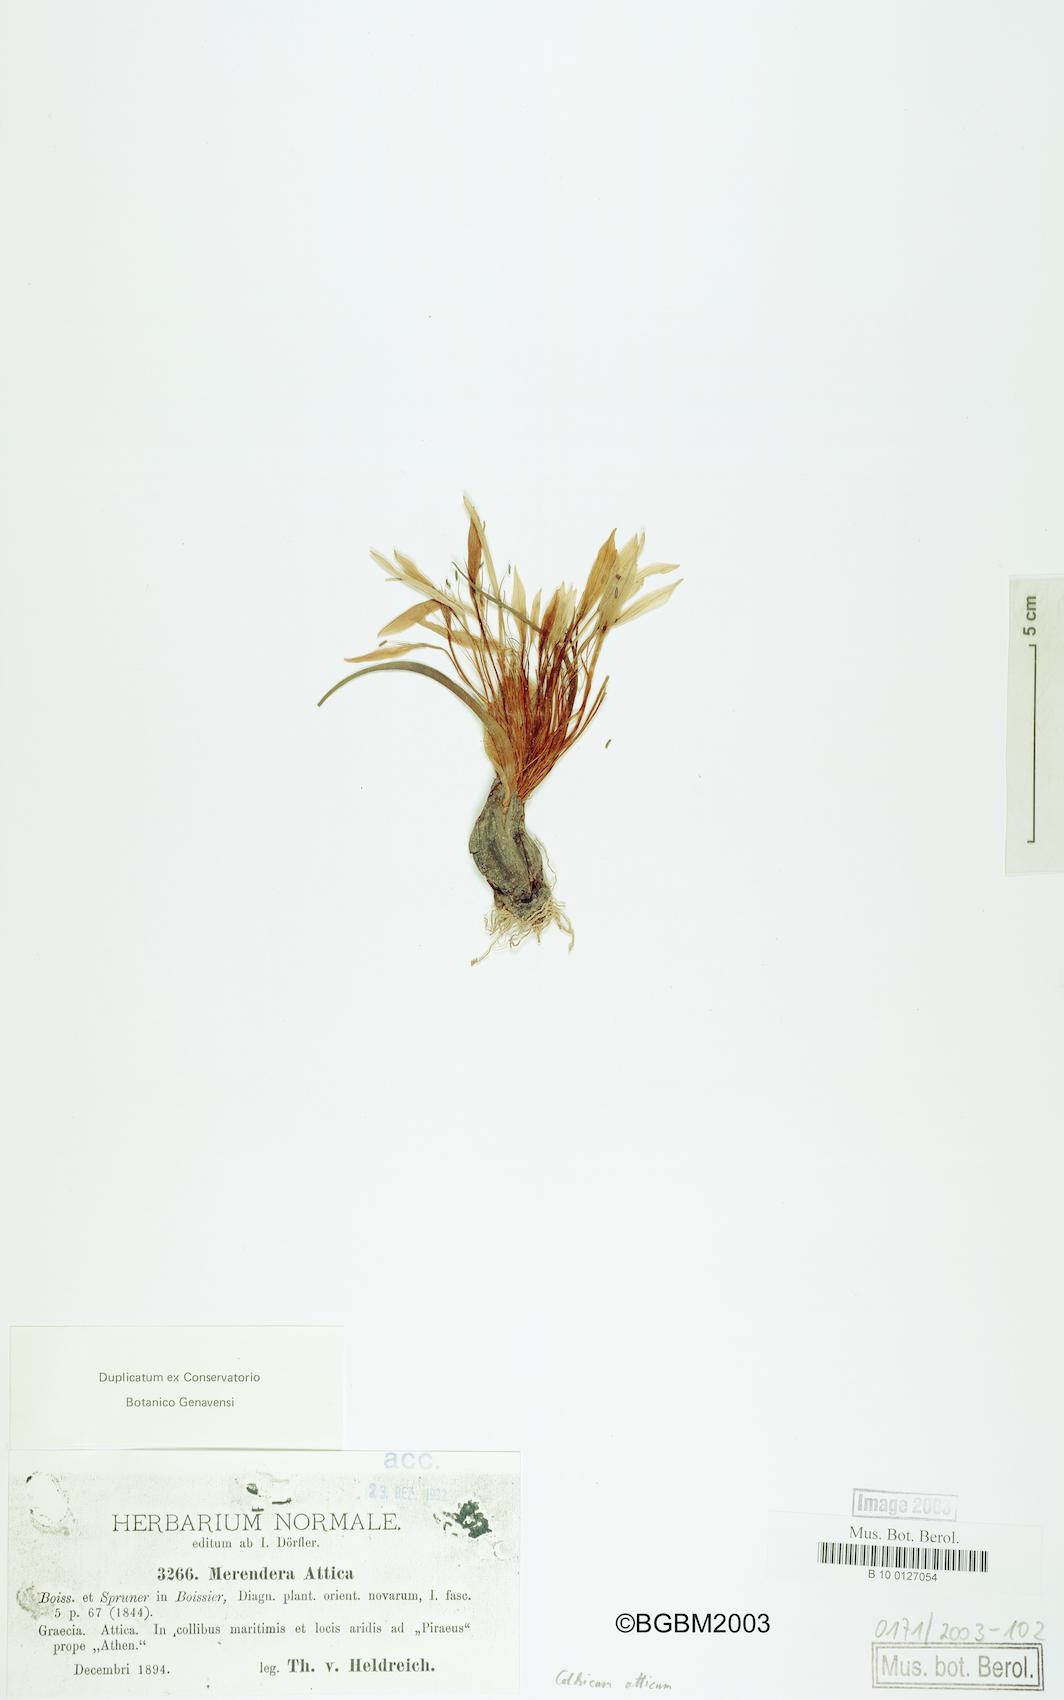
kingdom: Plantae
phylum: Tracheophyta
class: Liliopsida
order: Liliales
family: Colchicaceae
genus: Colchicum
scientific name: Colchicum atticum
